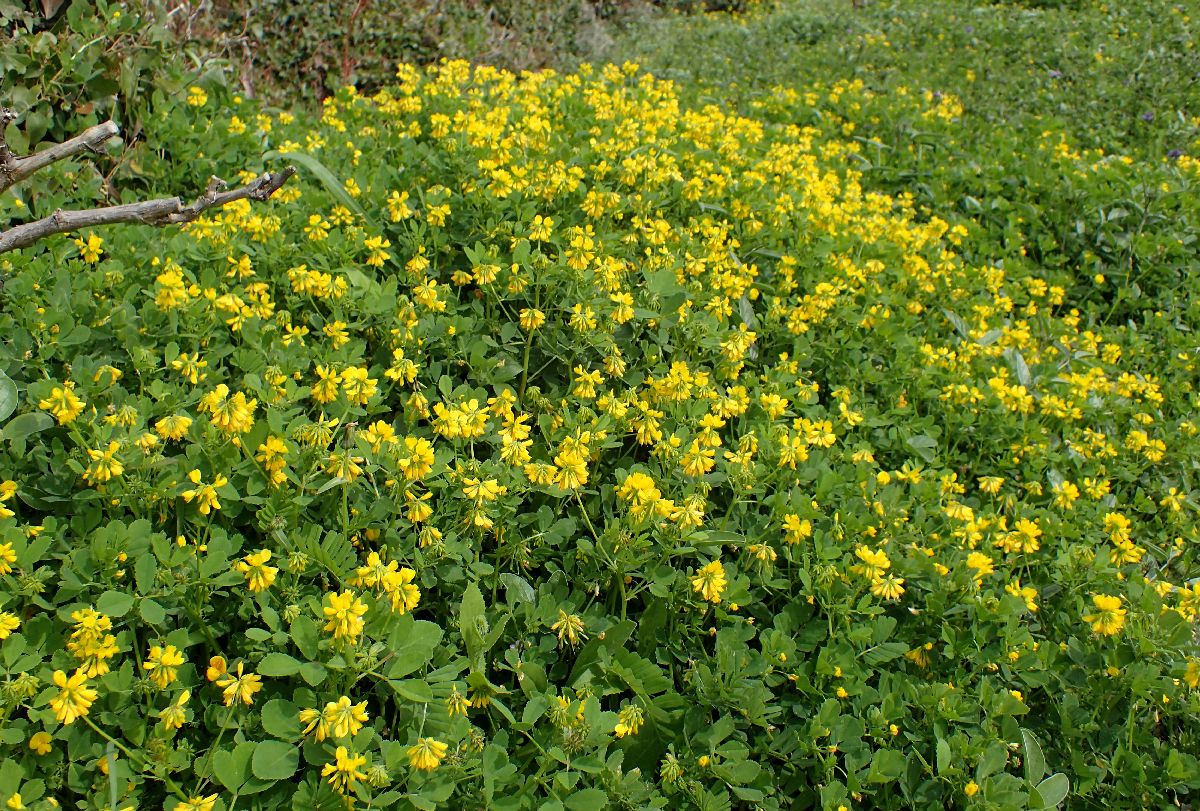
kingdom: Plantae
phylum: Tracheophyta
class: Magnoliopsida
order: Fabales
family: Fabaceae
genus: Trigonella
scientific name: Trigonella balansae
